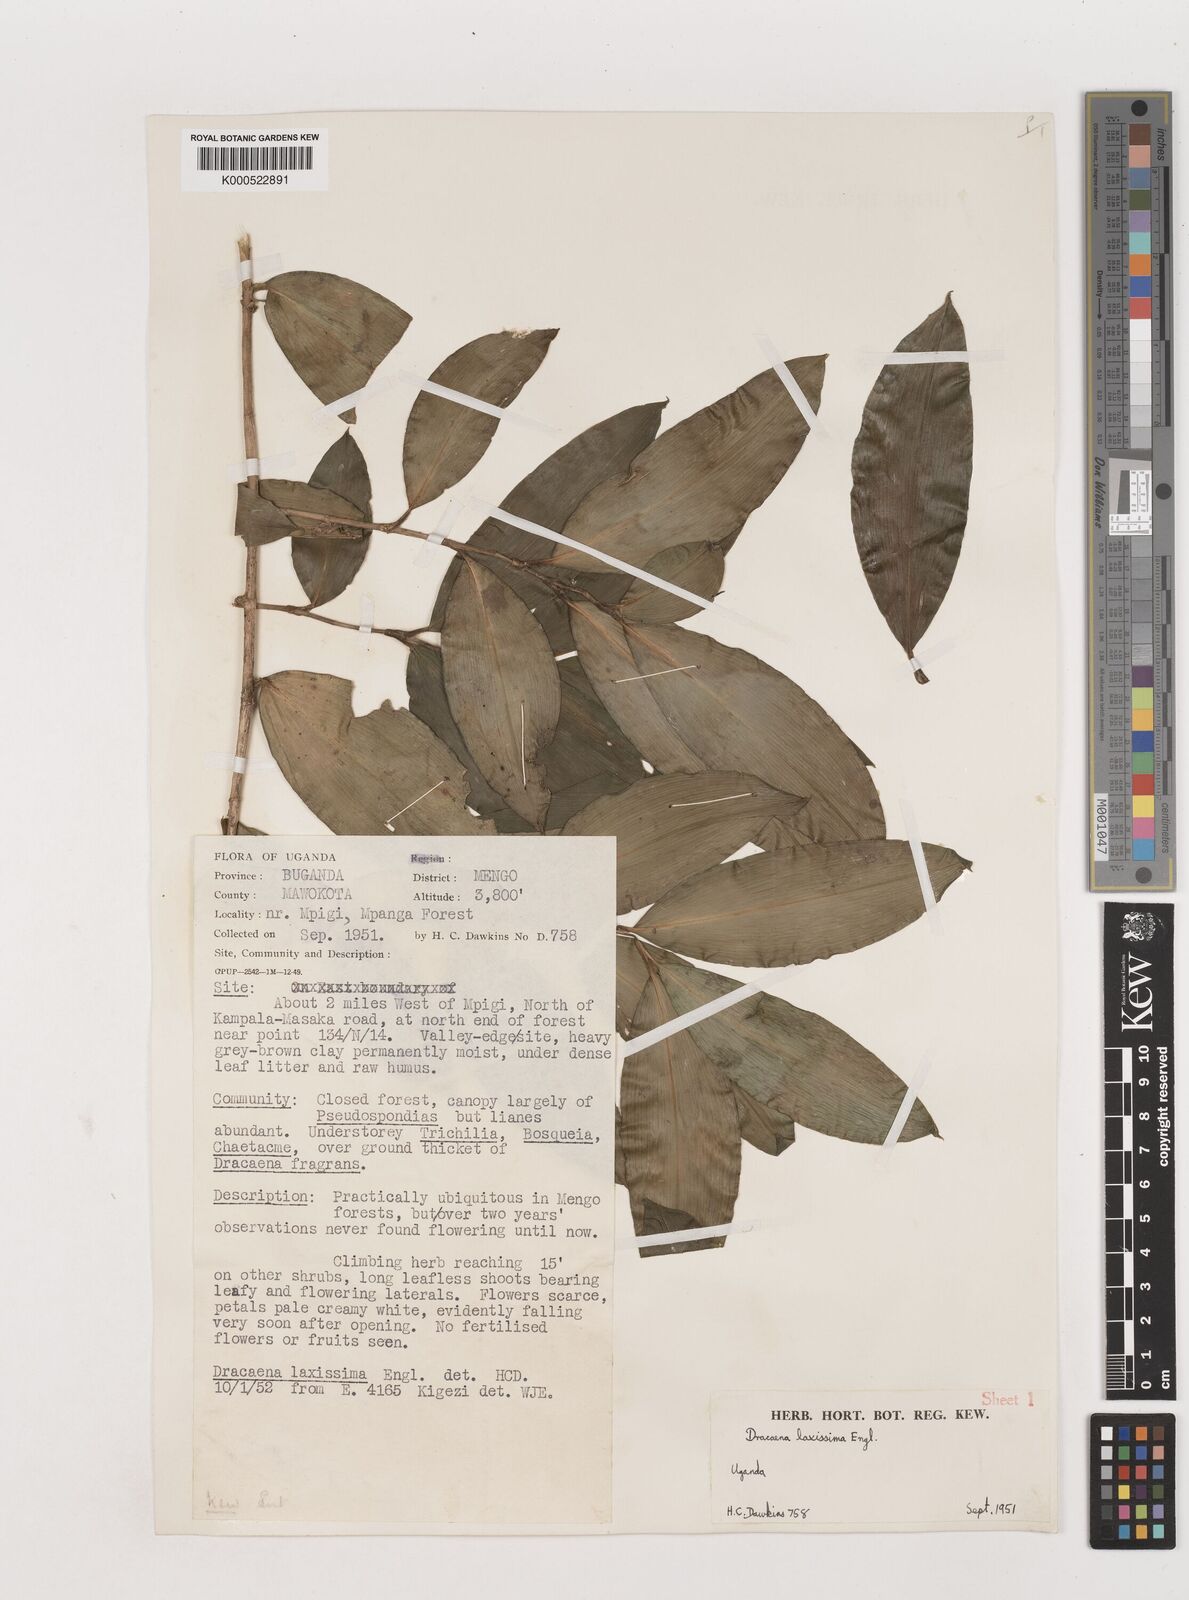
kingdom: Plantae
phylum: Tracheophyta
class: Liliopsida
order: Asparagales
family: Asparagaceae
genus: Dracaena
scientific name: Dracaena laxissima
